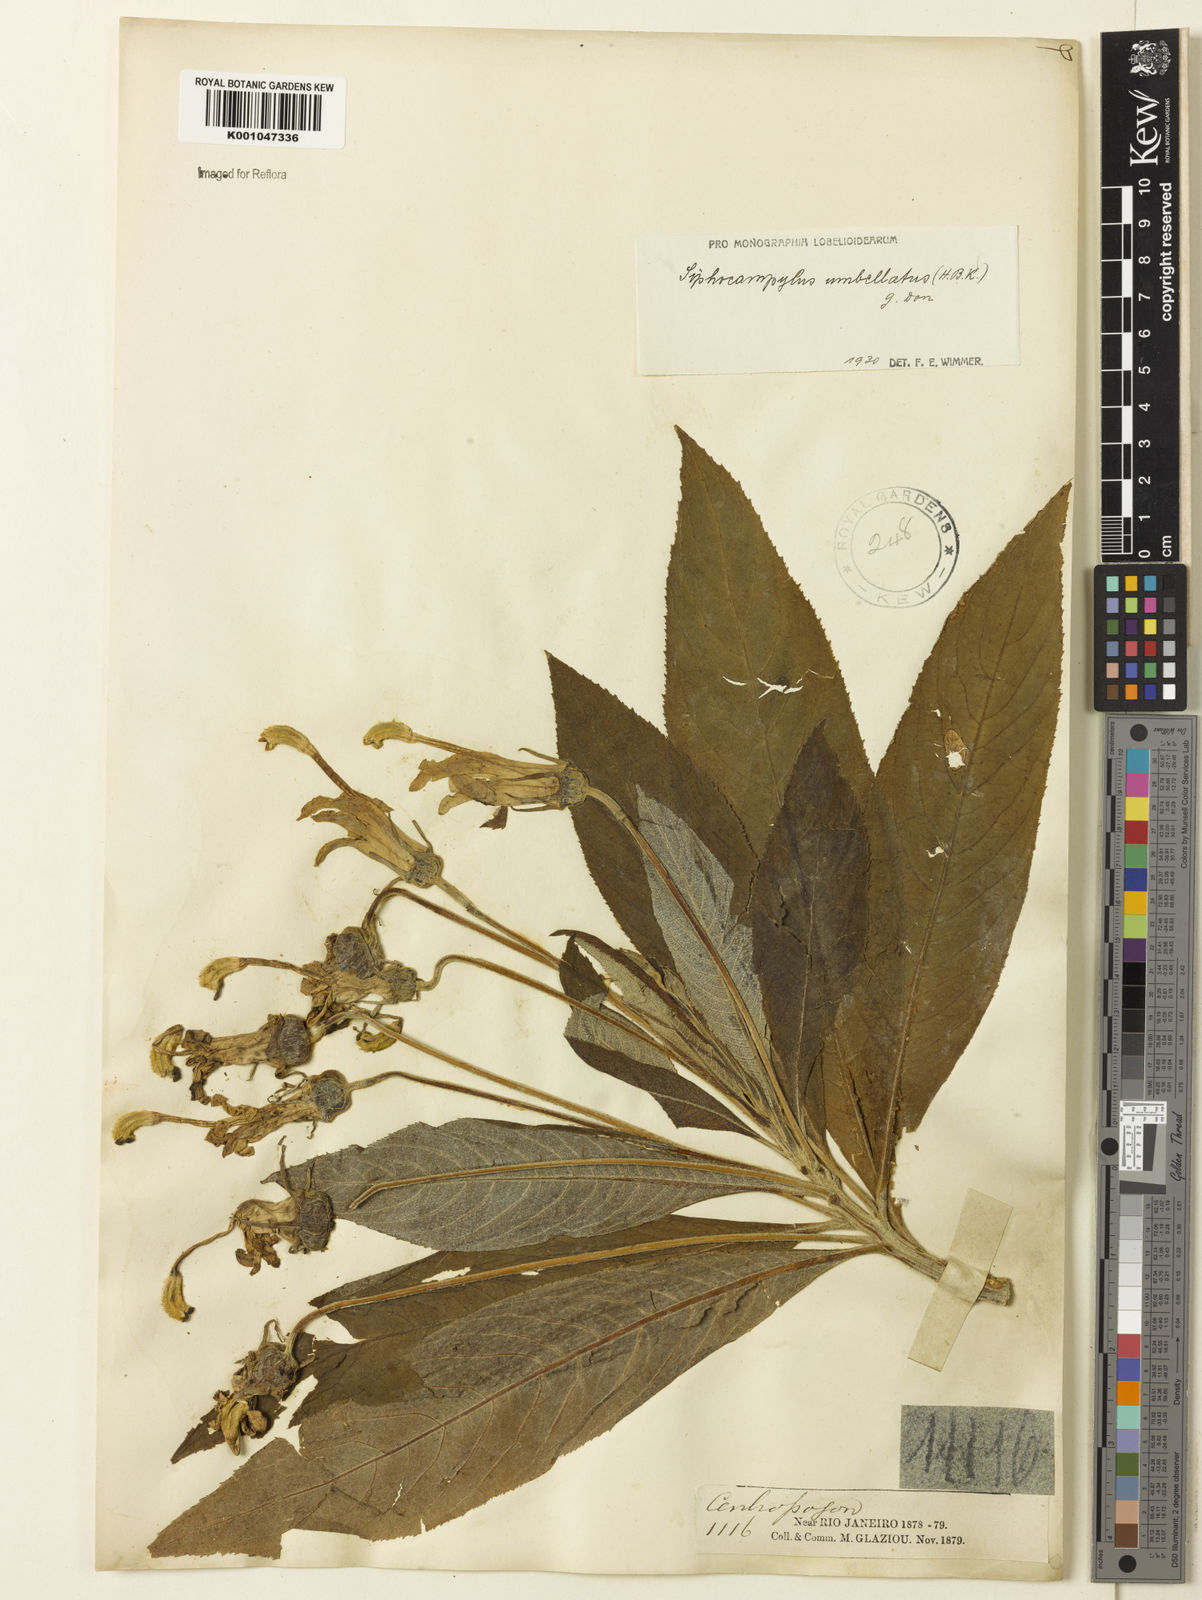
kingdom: Plantae
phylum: Tracheophyta
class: Magnoliopsida
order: Asterales
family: Campanulaceae
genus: Siphocampylus
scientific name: Siphocampylus umbellatus
